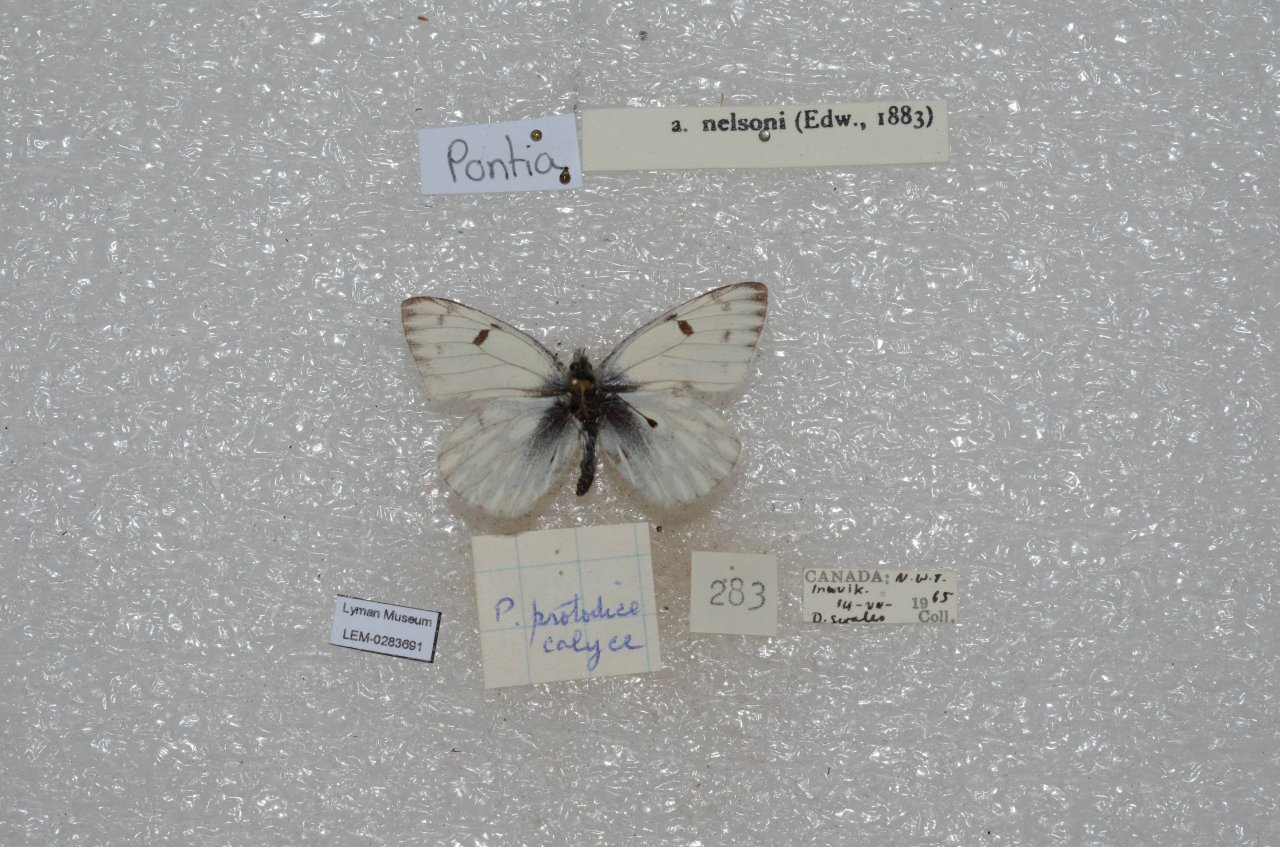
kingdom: Animalia
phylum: Arthropoda
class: Insecta
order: Lepidoptera
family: Pieridae
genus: Pontia
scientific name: Pontia occidentalis
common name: Western White
